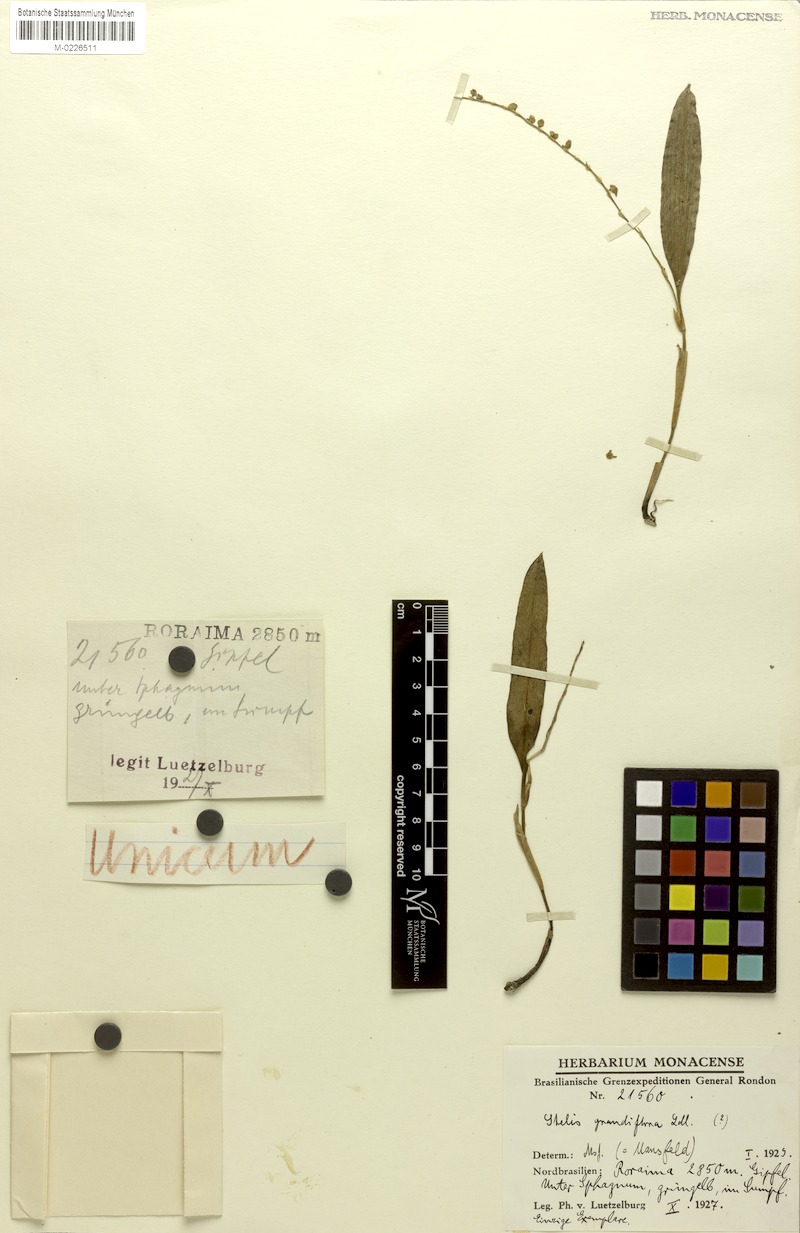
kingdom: Plantae
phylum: Tracheophyta
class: Liliopsida
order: Asparagales
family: Orchidaceae
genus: Stelis
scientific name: Stelis grandiflora
